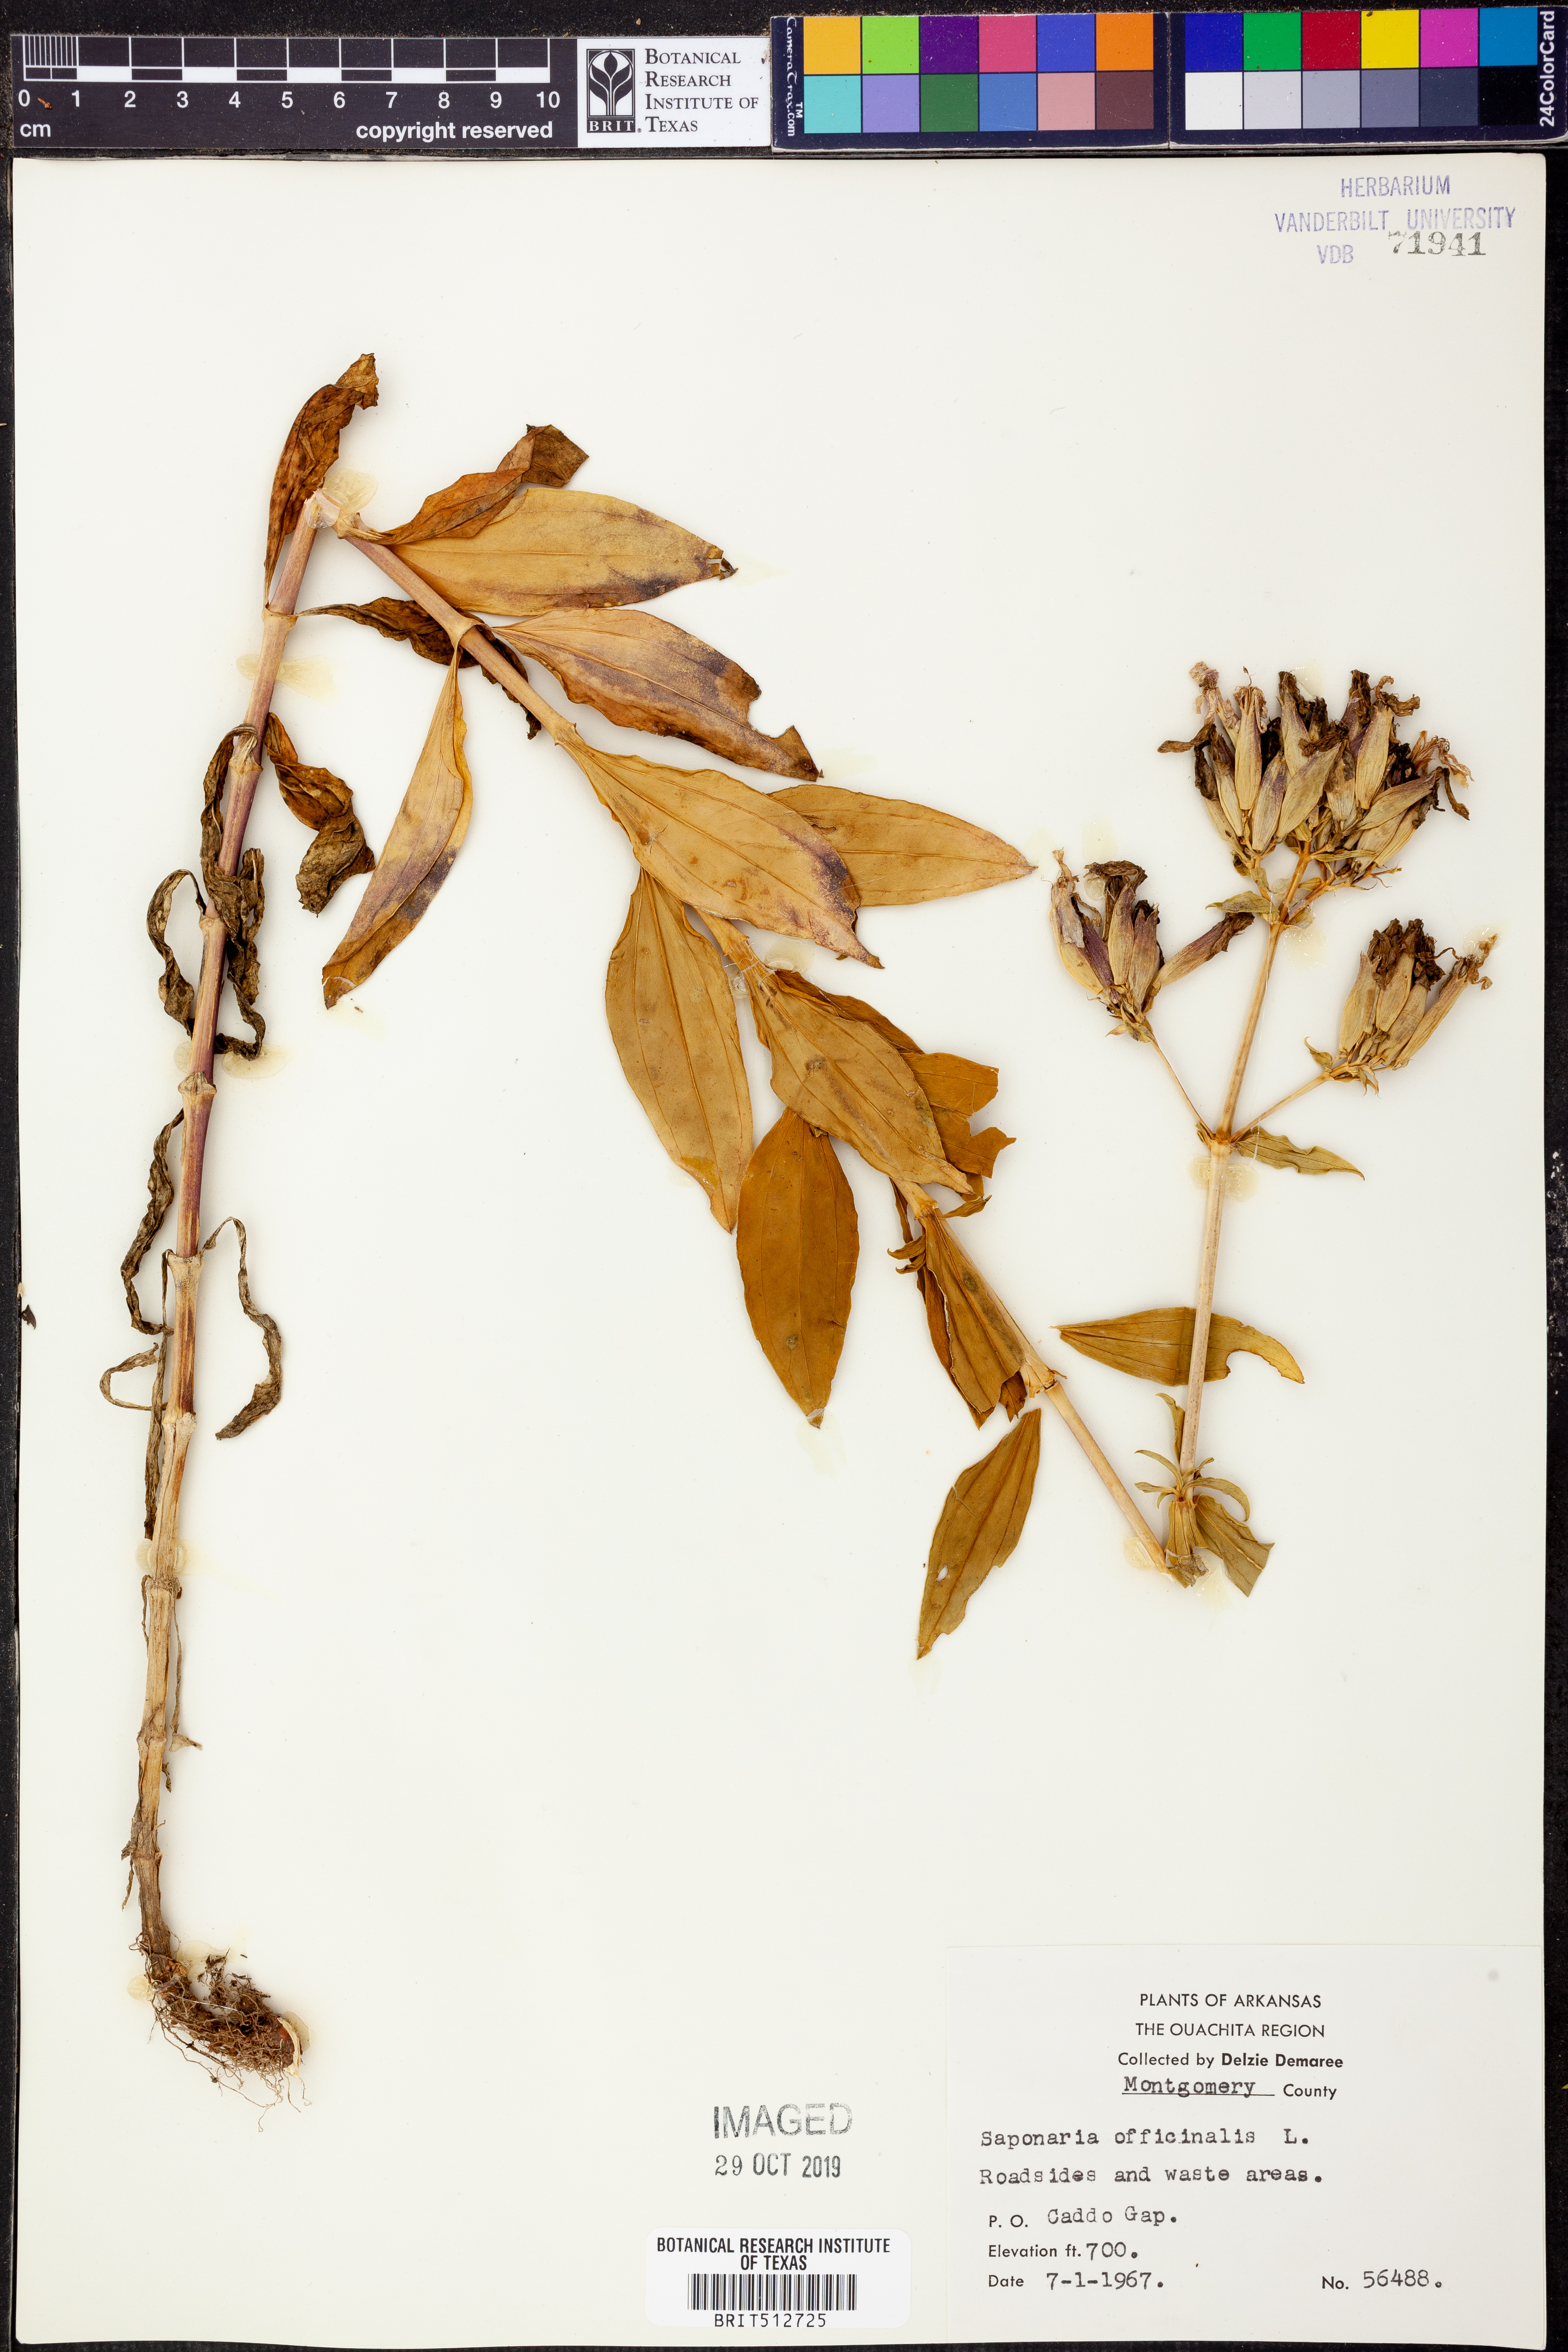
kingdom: Plantae
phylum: Tracheophyta
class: Magnoliopsida
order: Caryophyllales
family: Caryophyllaceae
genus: Saponaria
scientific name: Saponaria officinalis
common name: Soapwort
